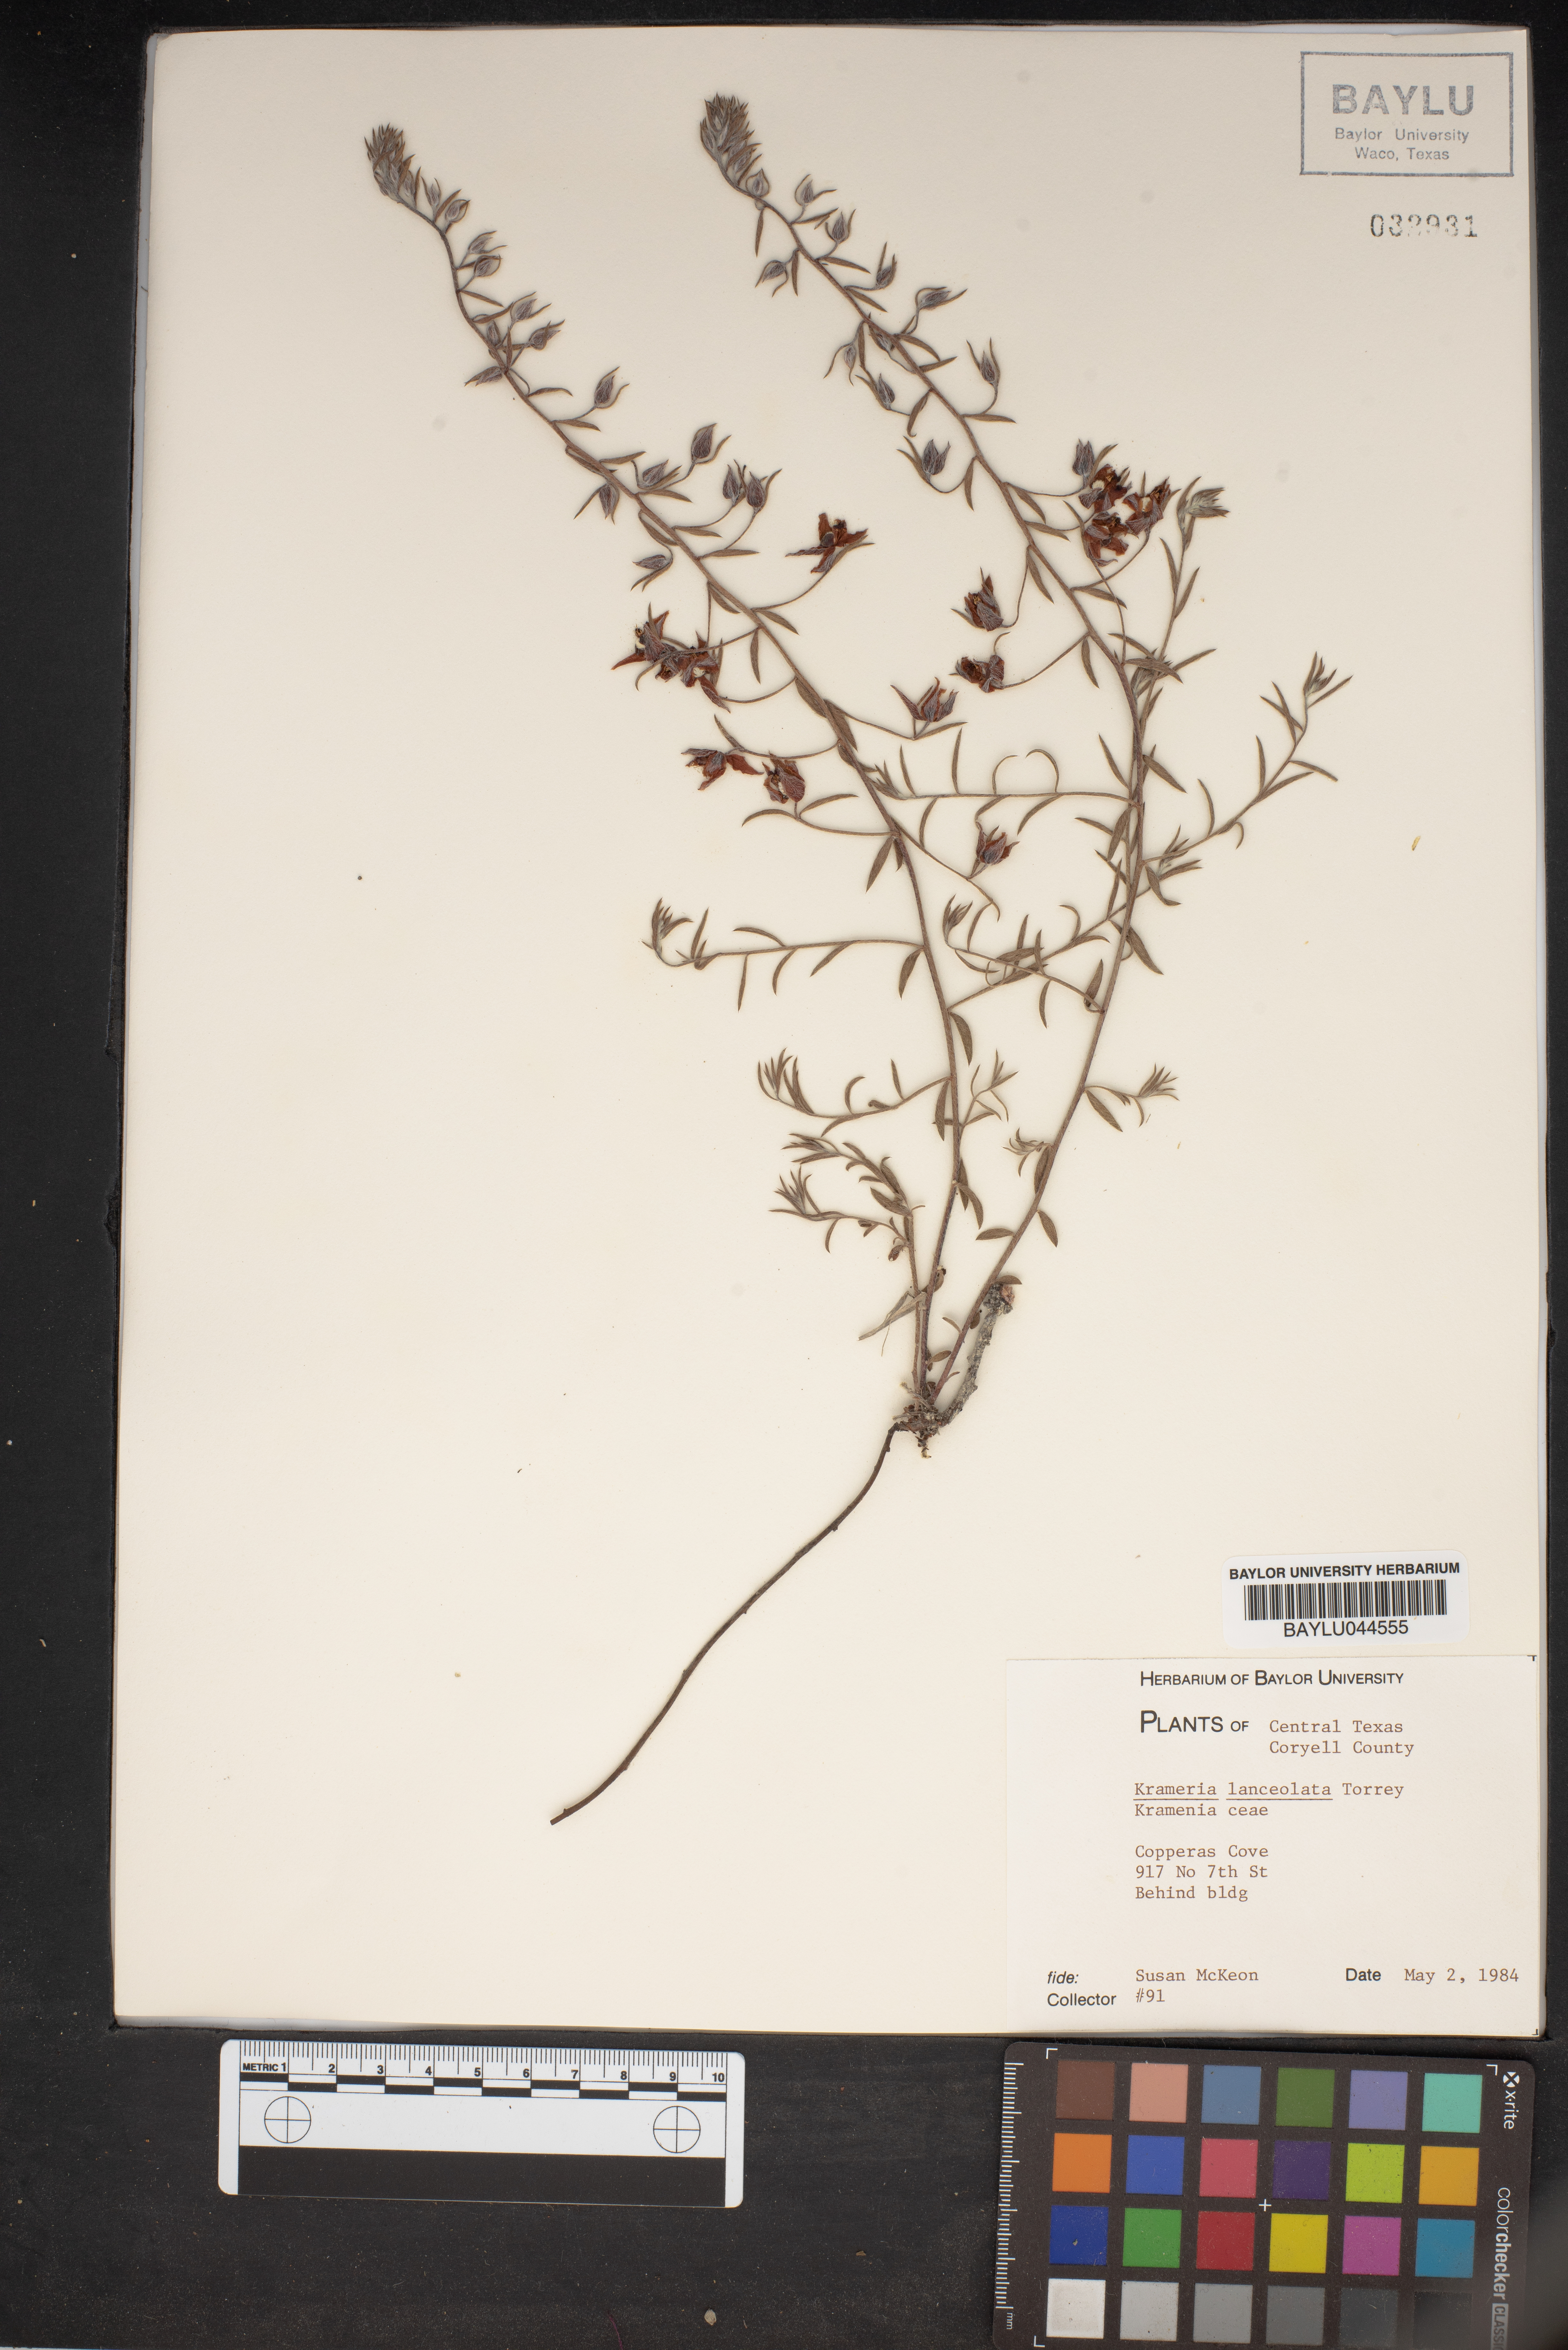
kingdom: Plantae
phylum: Tracheophyta
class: Magnoliopsida
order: Zygophyllales
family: Krameriaceae
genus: Krameria
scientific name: Krameria lanceolata
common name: Ratany
